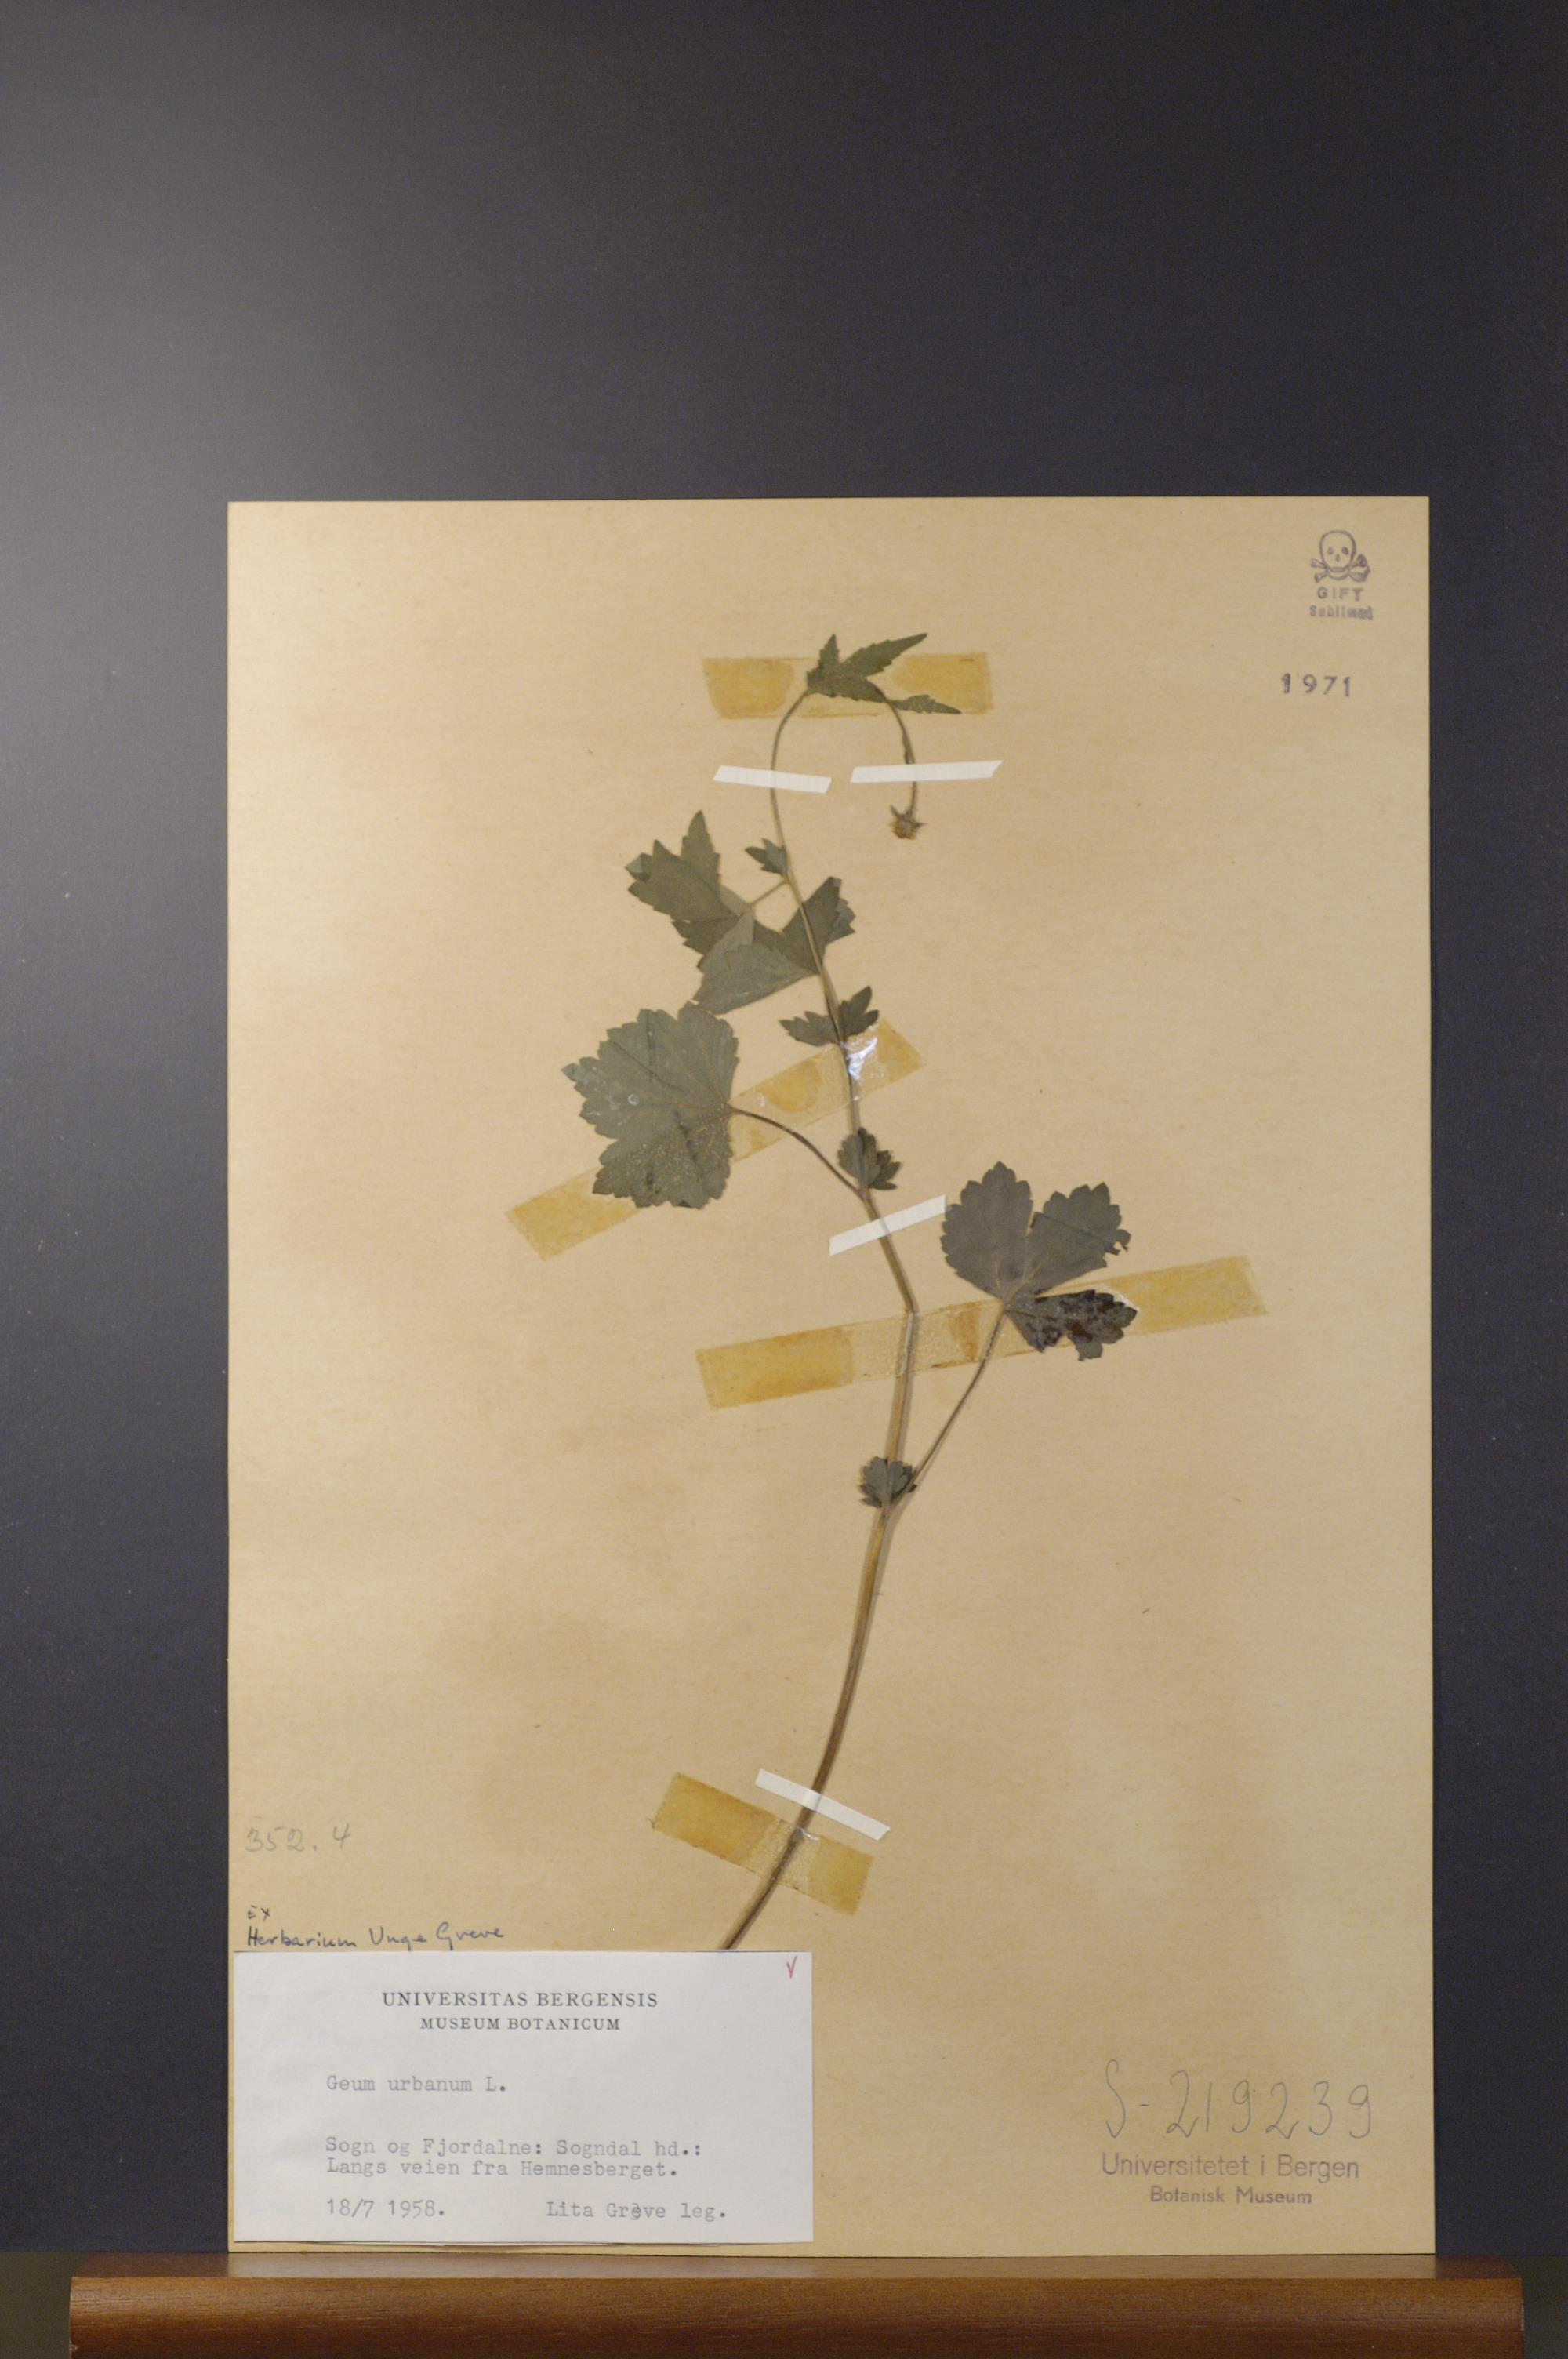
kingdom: Plantae
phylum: Tracheophyta
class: Magnoliopsida
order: Rosales
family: Rosaceae
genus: Geum
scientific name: Geum urbanum
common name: Wood avens
